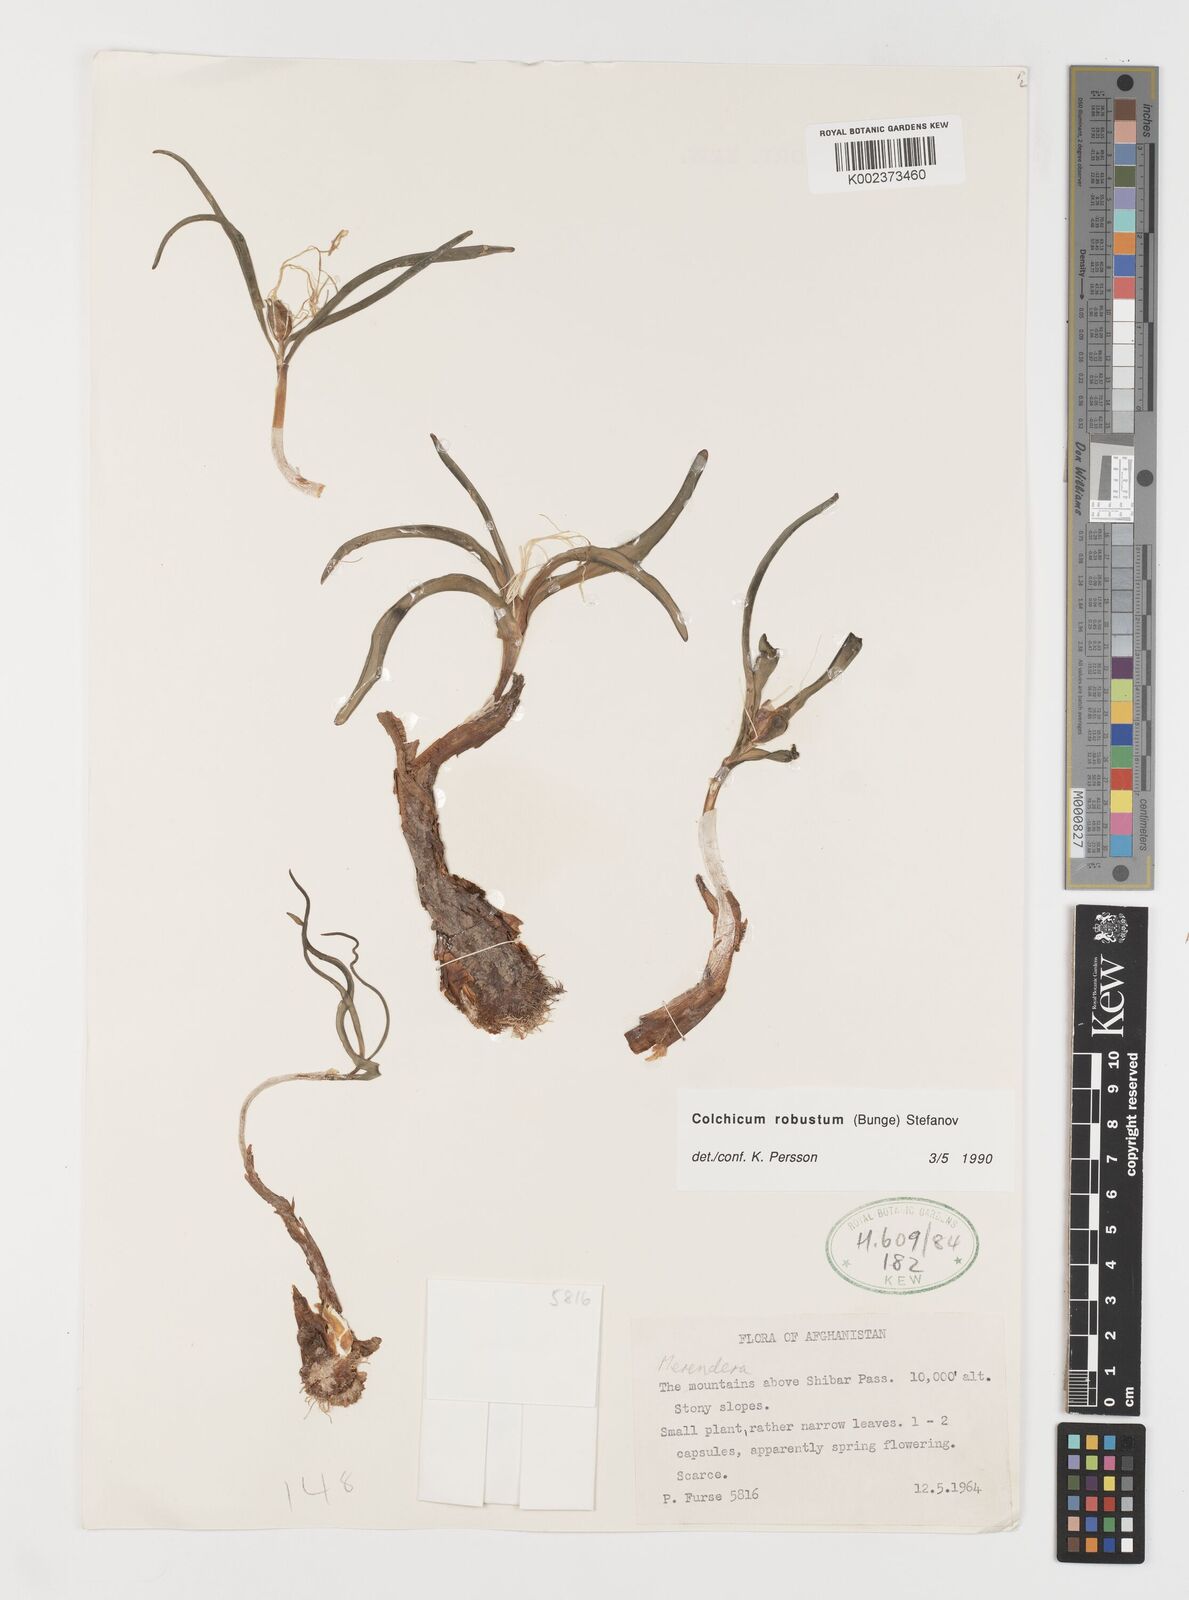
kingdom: Plantae
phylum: Tracheophyta
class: Liliopsida
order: Liliales
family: Colchicaceae
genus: Colchicum
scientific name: Colchicum robustum
